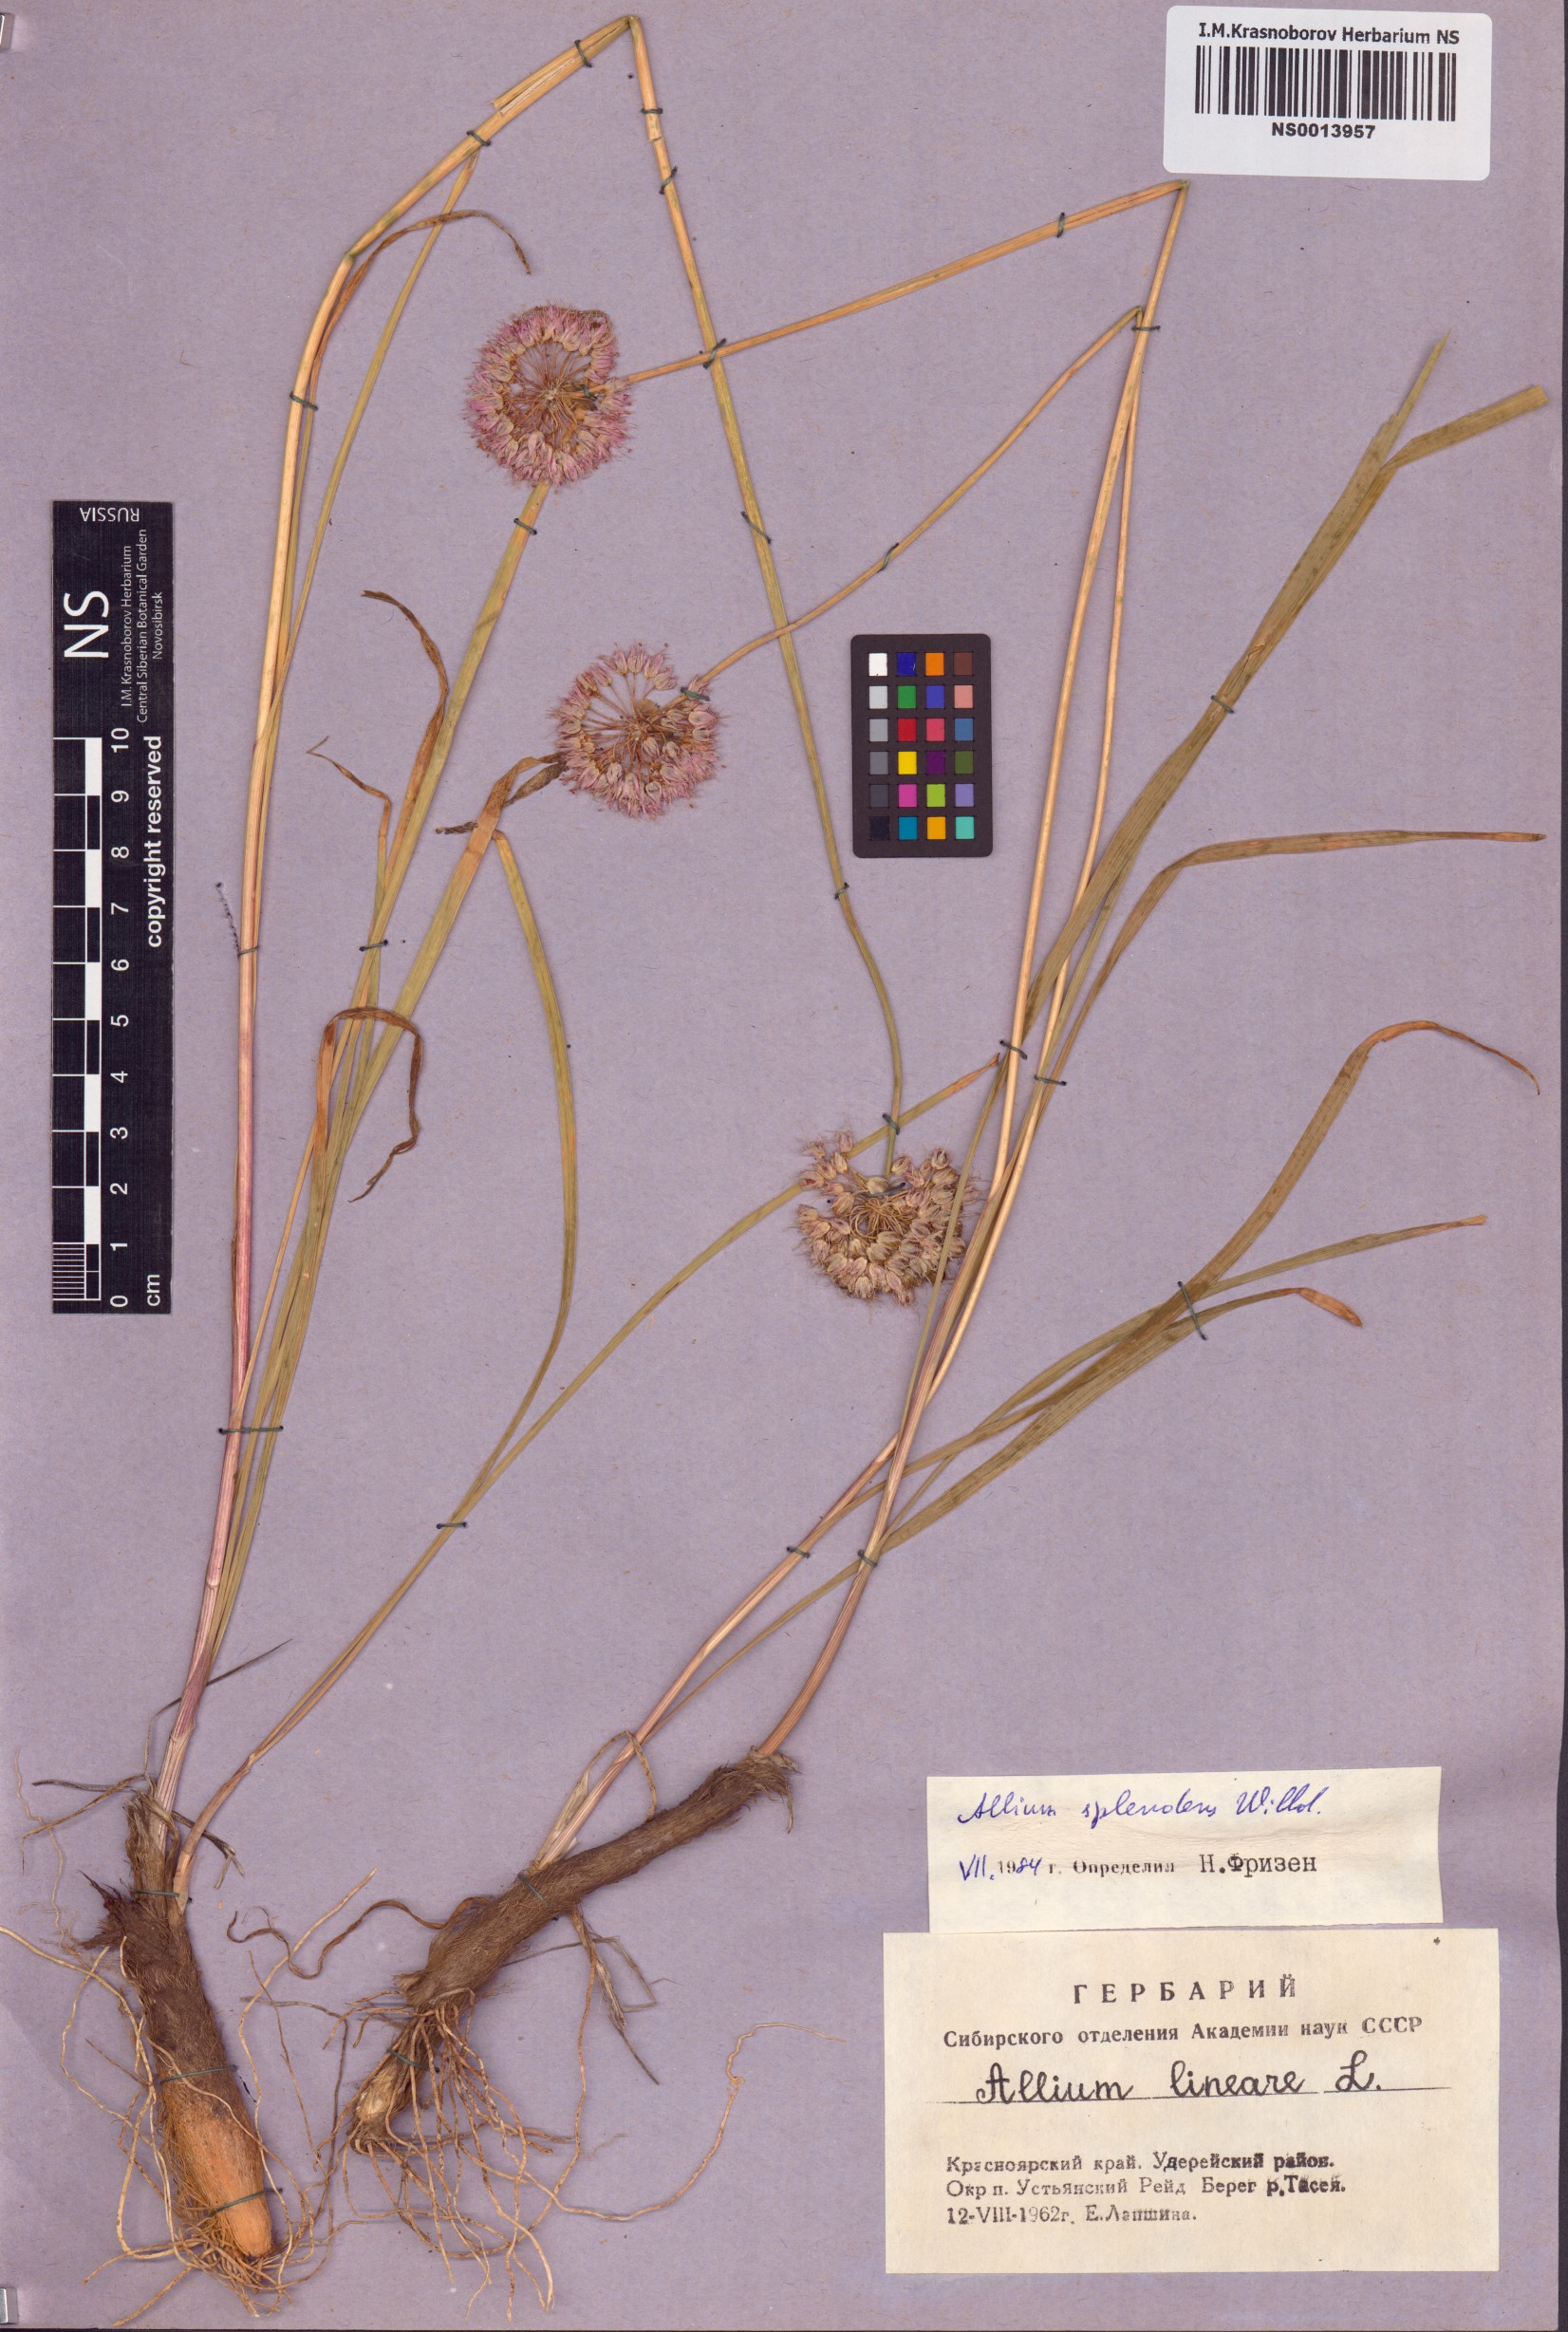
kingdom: Plantae
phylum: Tracheophyta
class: Liliopsida
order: Asparagales
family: Amaryllidaceae
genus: Allium
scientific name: Allium splendens
